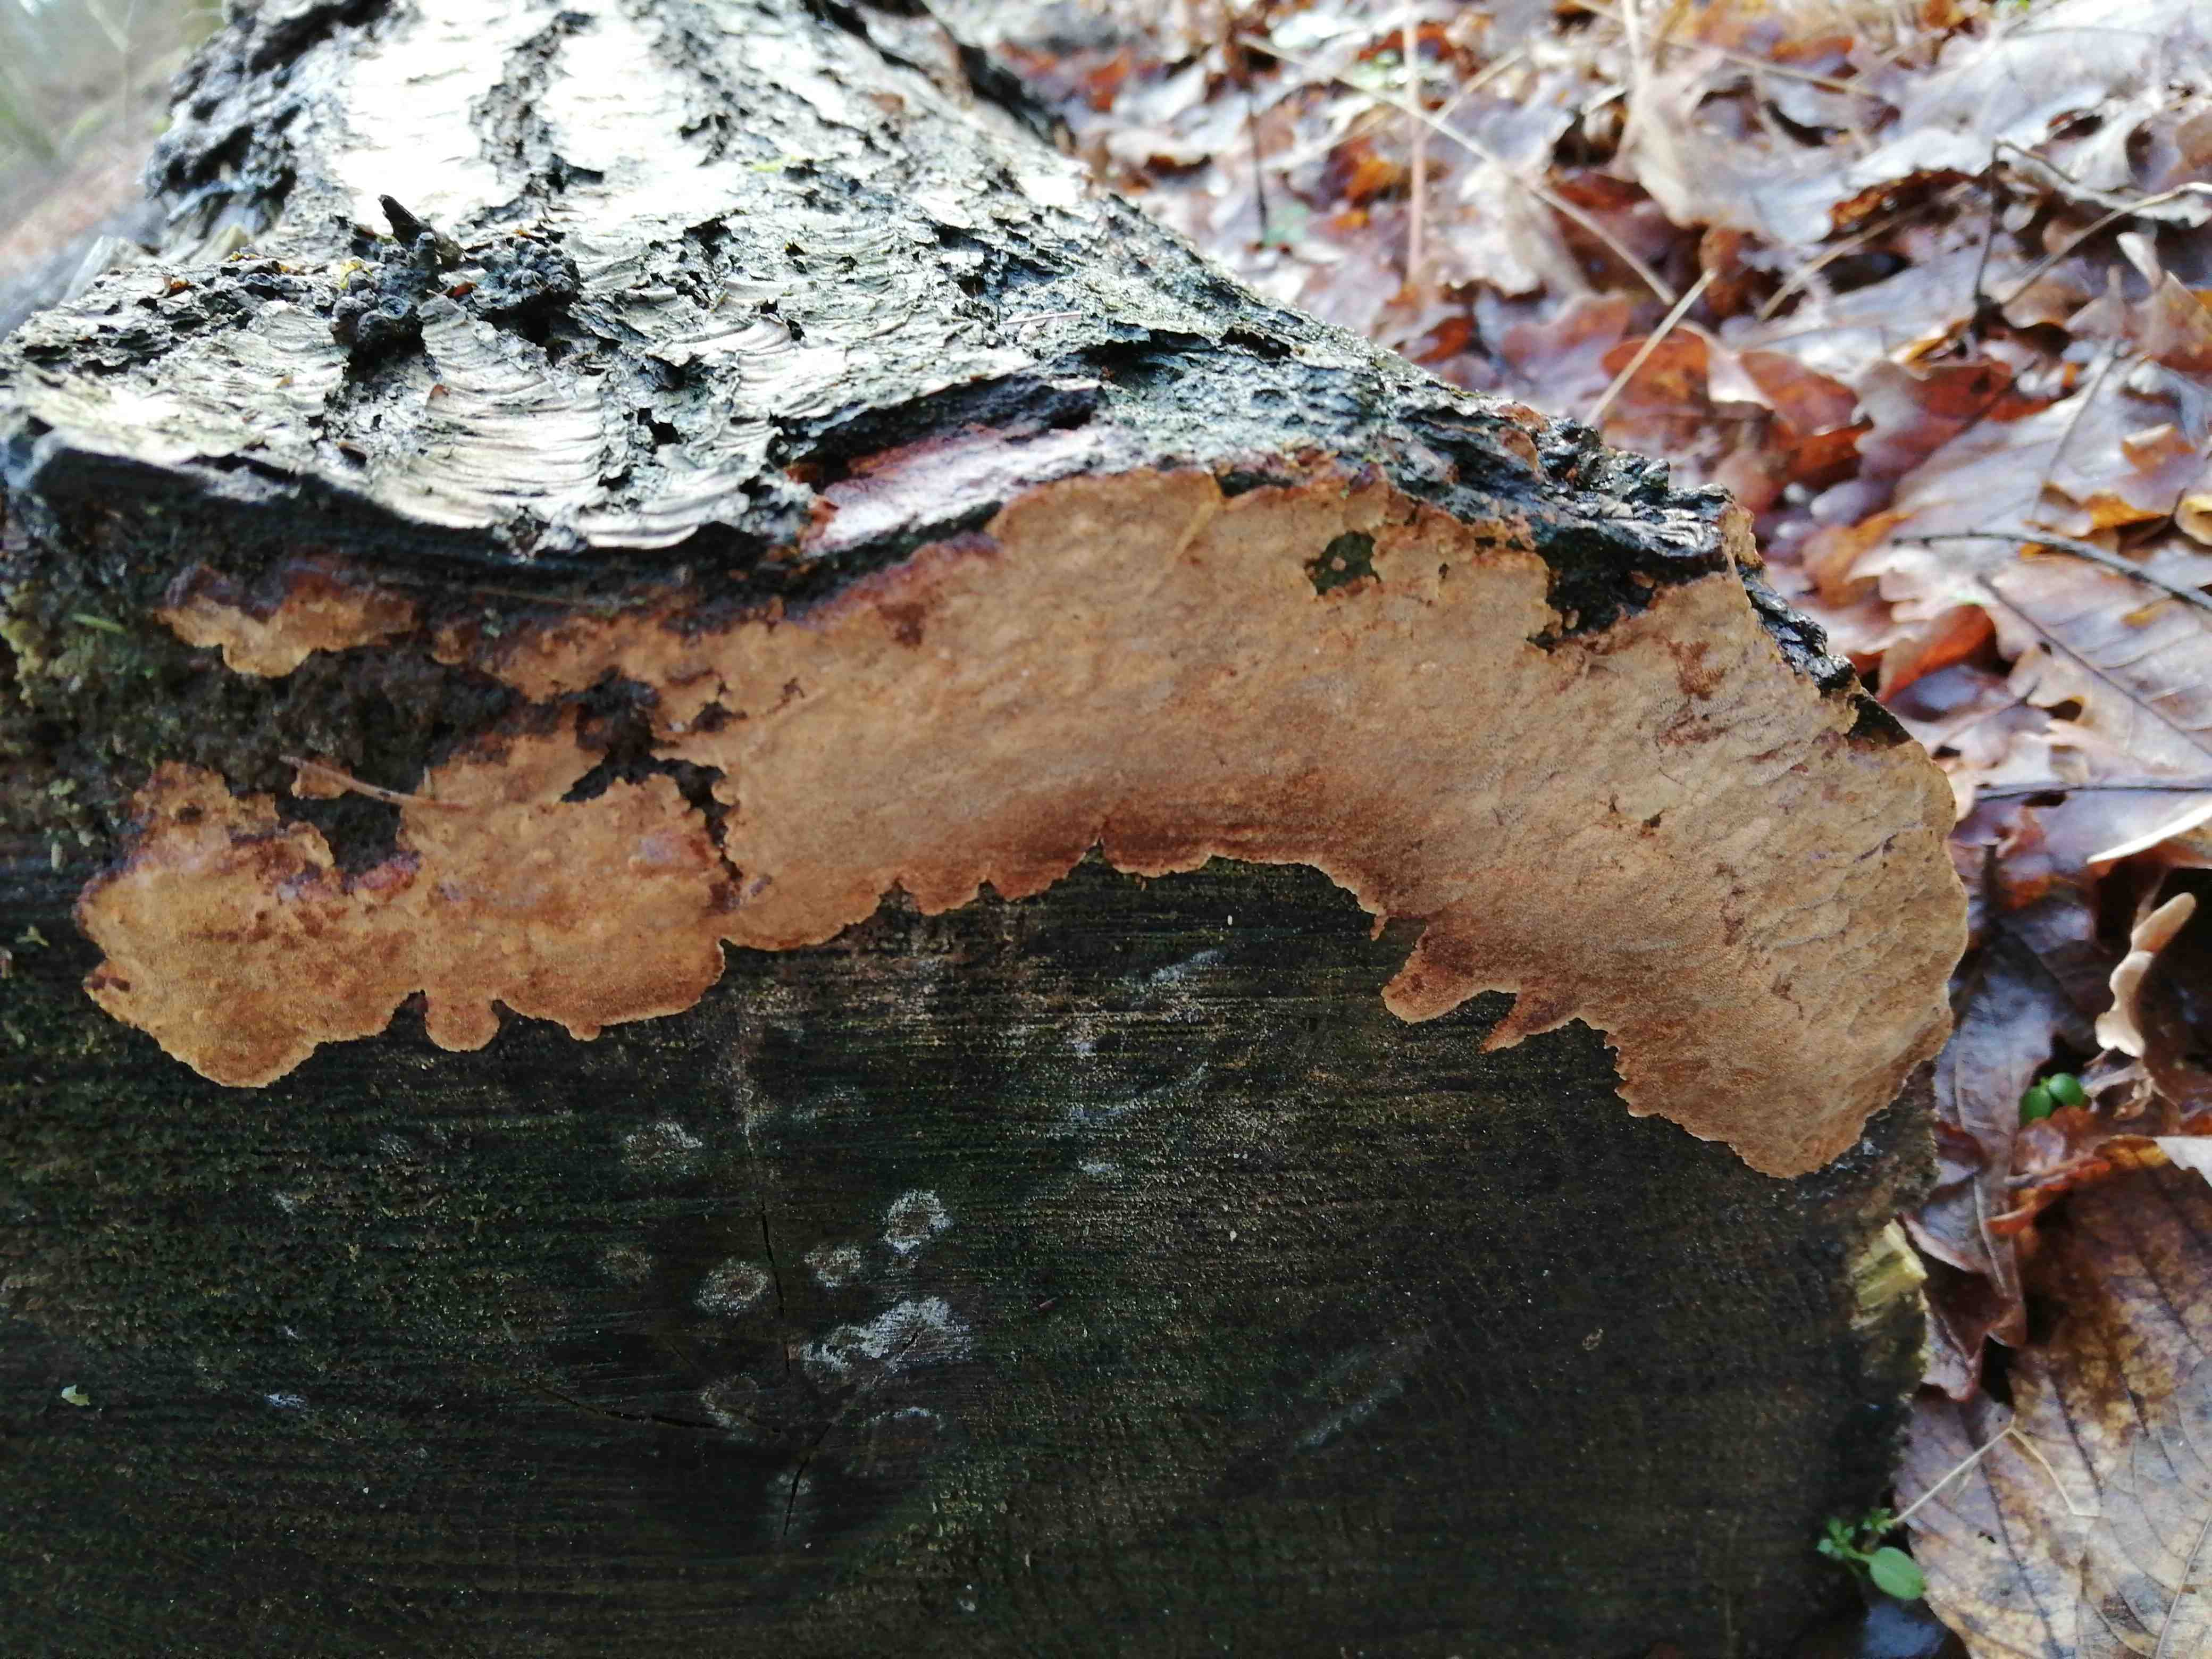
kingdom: Fungi
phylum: Basidiomycota
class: Agaricomycetes
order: Russulales
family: Stereaceae
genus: Stereum
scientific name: Stereum rugosum
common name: rynket lædersvamp
